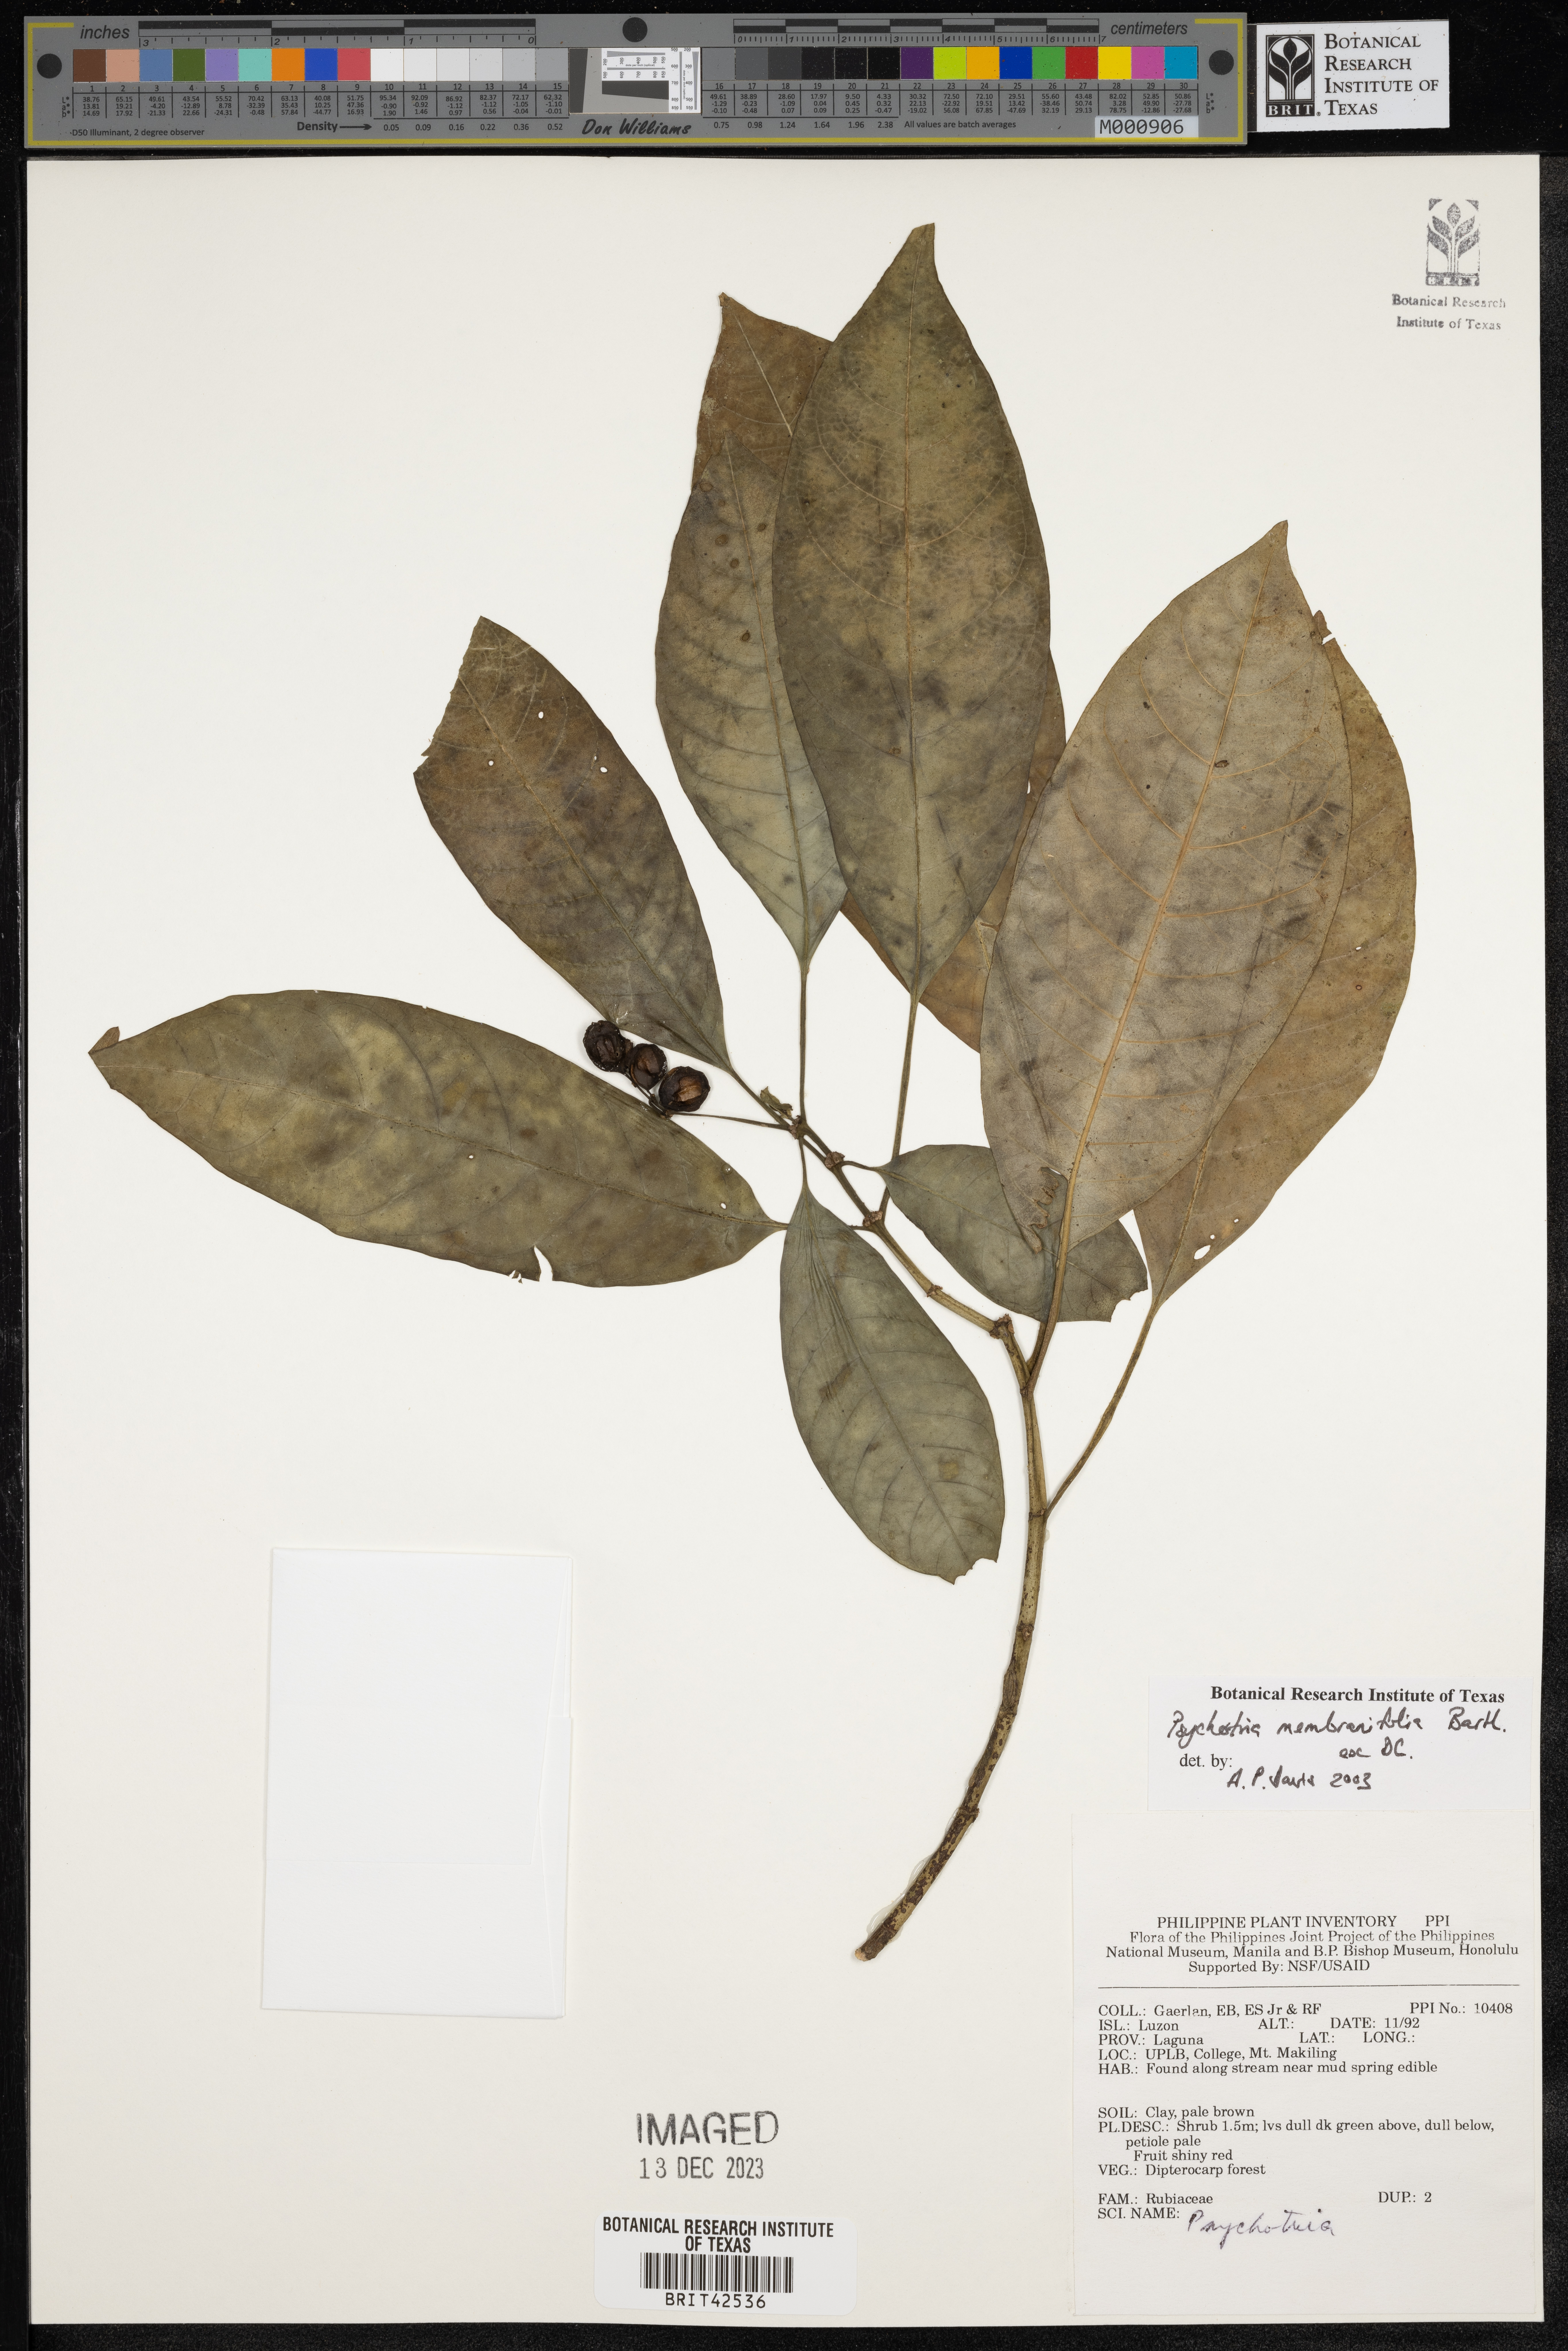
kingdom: Plantae
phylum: Tracheophyta
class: Magnoliopsida
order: Gentianales
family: Rubiaceae
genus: Eumachia
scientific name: Eumachia membranifolia
